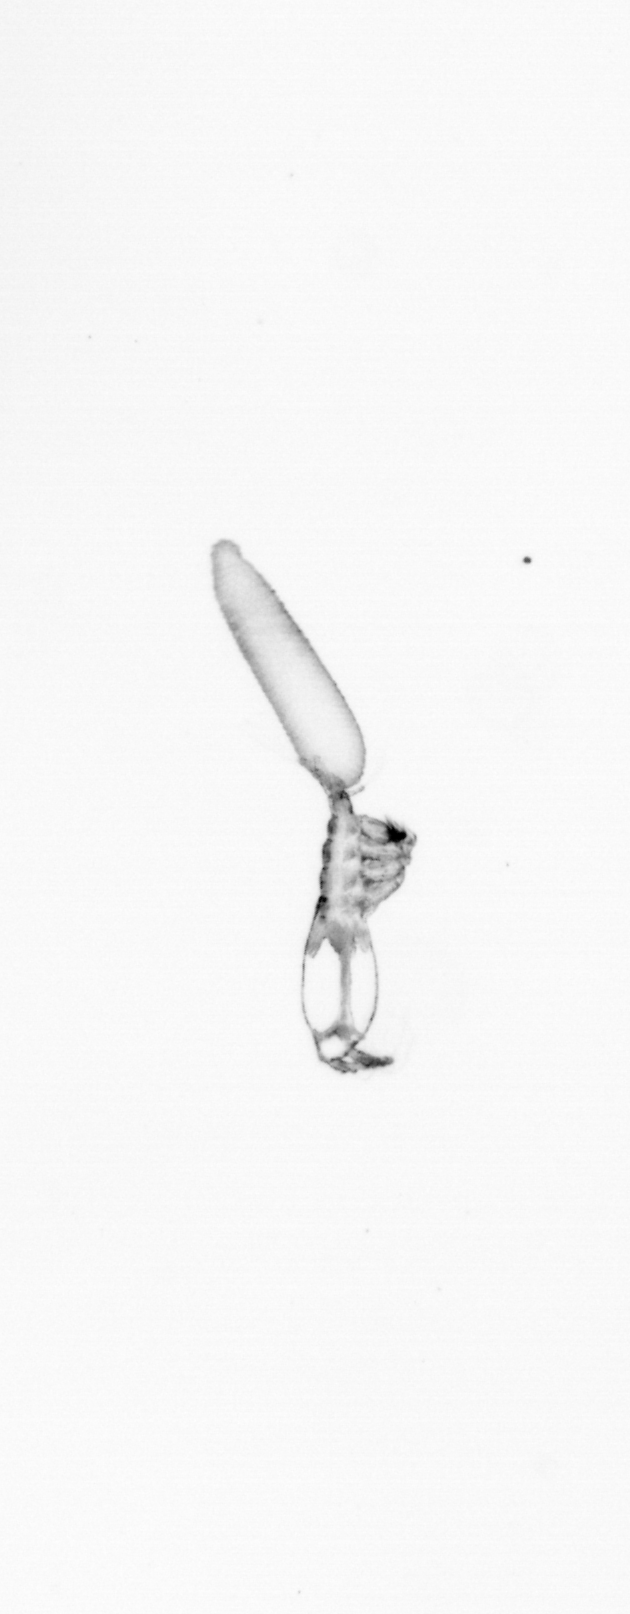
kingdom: Animalia
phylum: Arthropoda
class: Copepoda
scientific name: Copepoda
